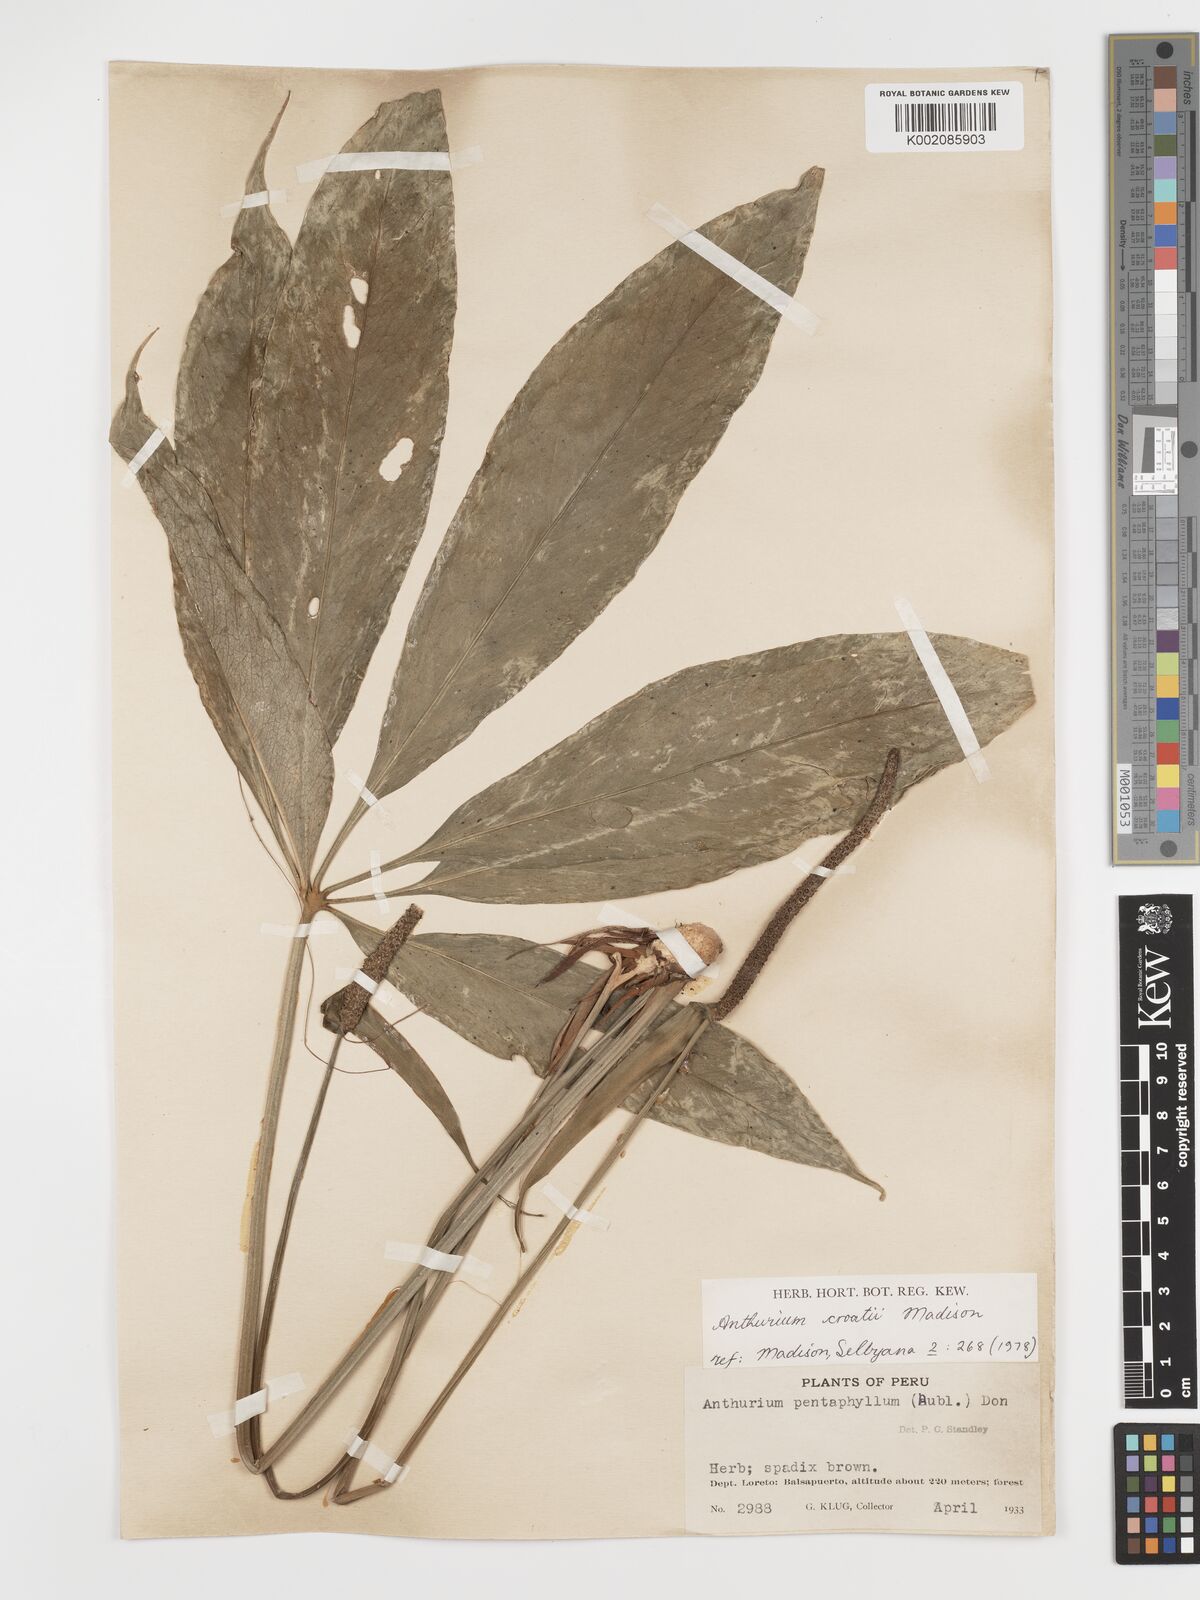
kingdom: Plantae
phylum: Tracheophyta
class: Liliopsida
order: Alismatales
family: Araceae
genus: Anthurium
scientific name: Anthurium croatii
